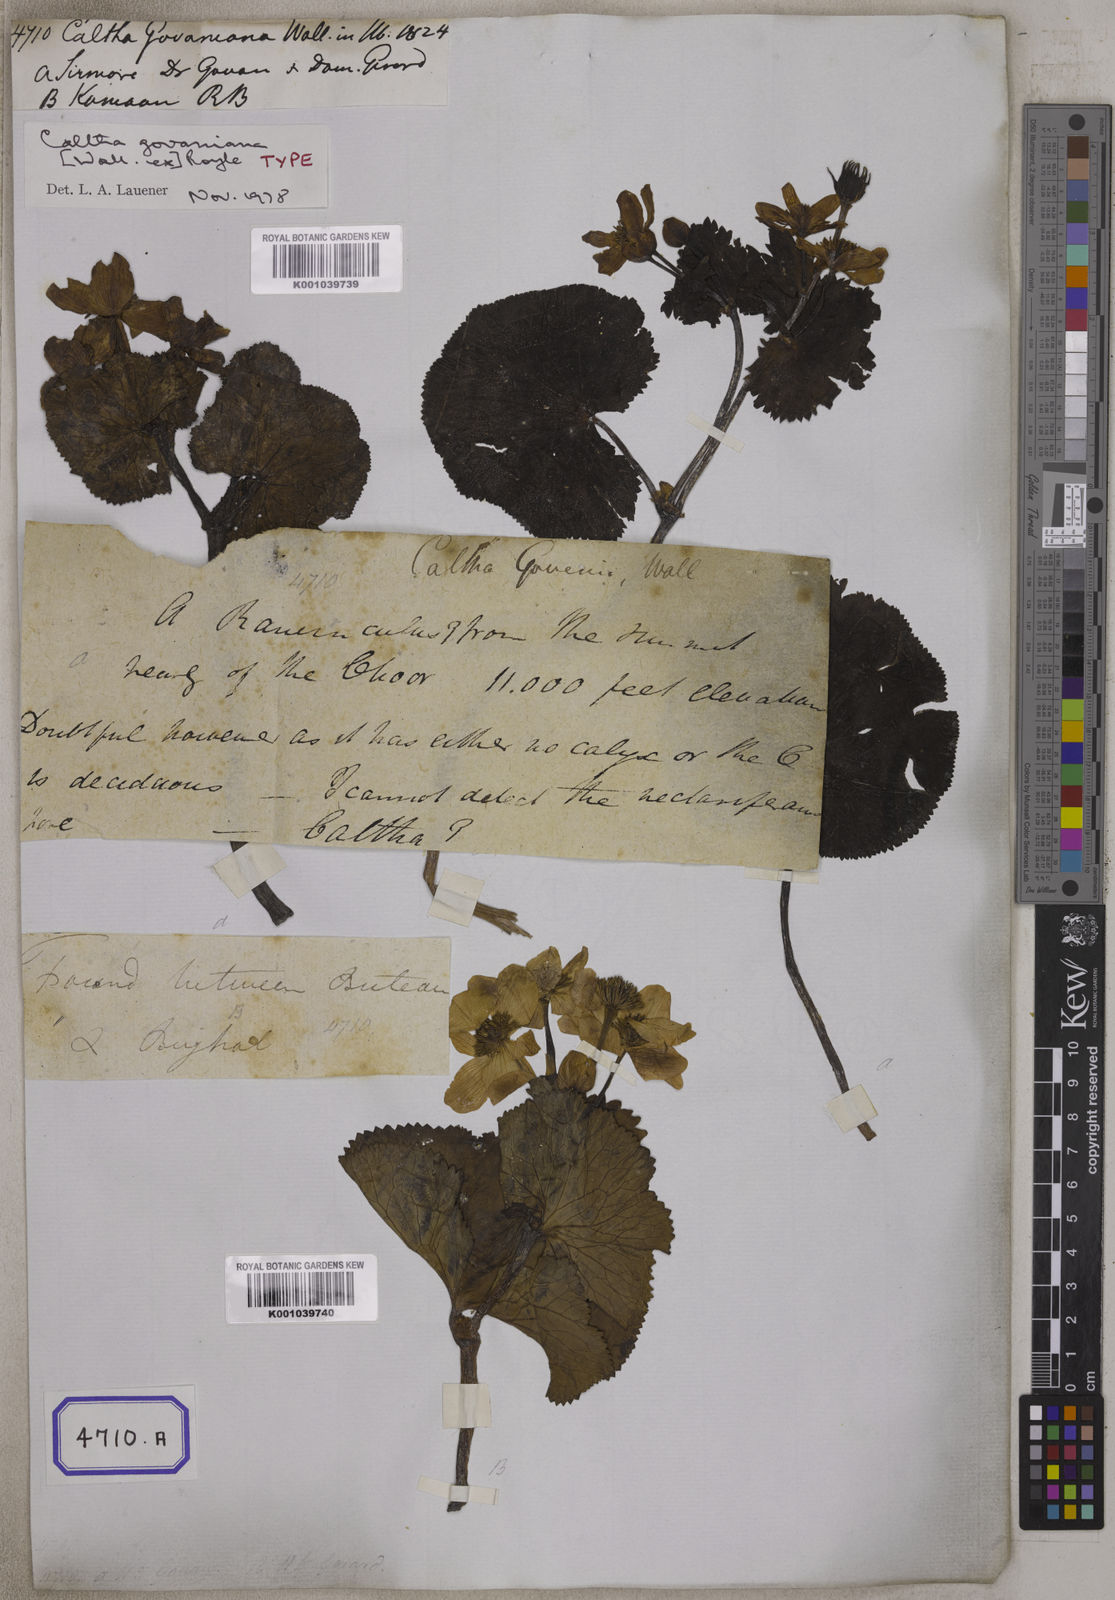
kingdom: Plantae
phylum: Tracheophyta
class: Magnoliopsida
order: Ranunculales
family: Ranunculaceae
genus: Caltha
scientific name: Caltha
